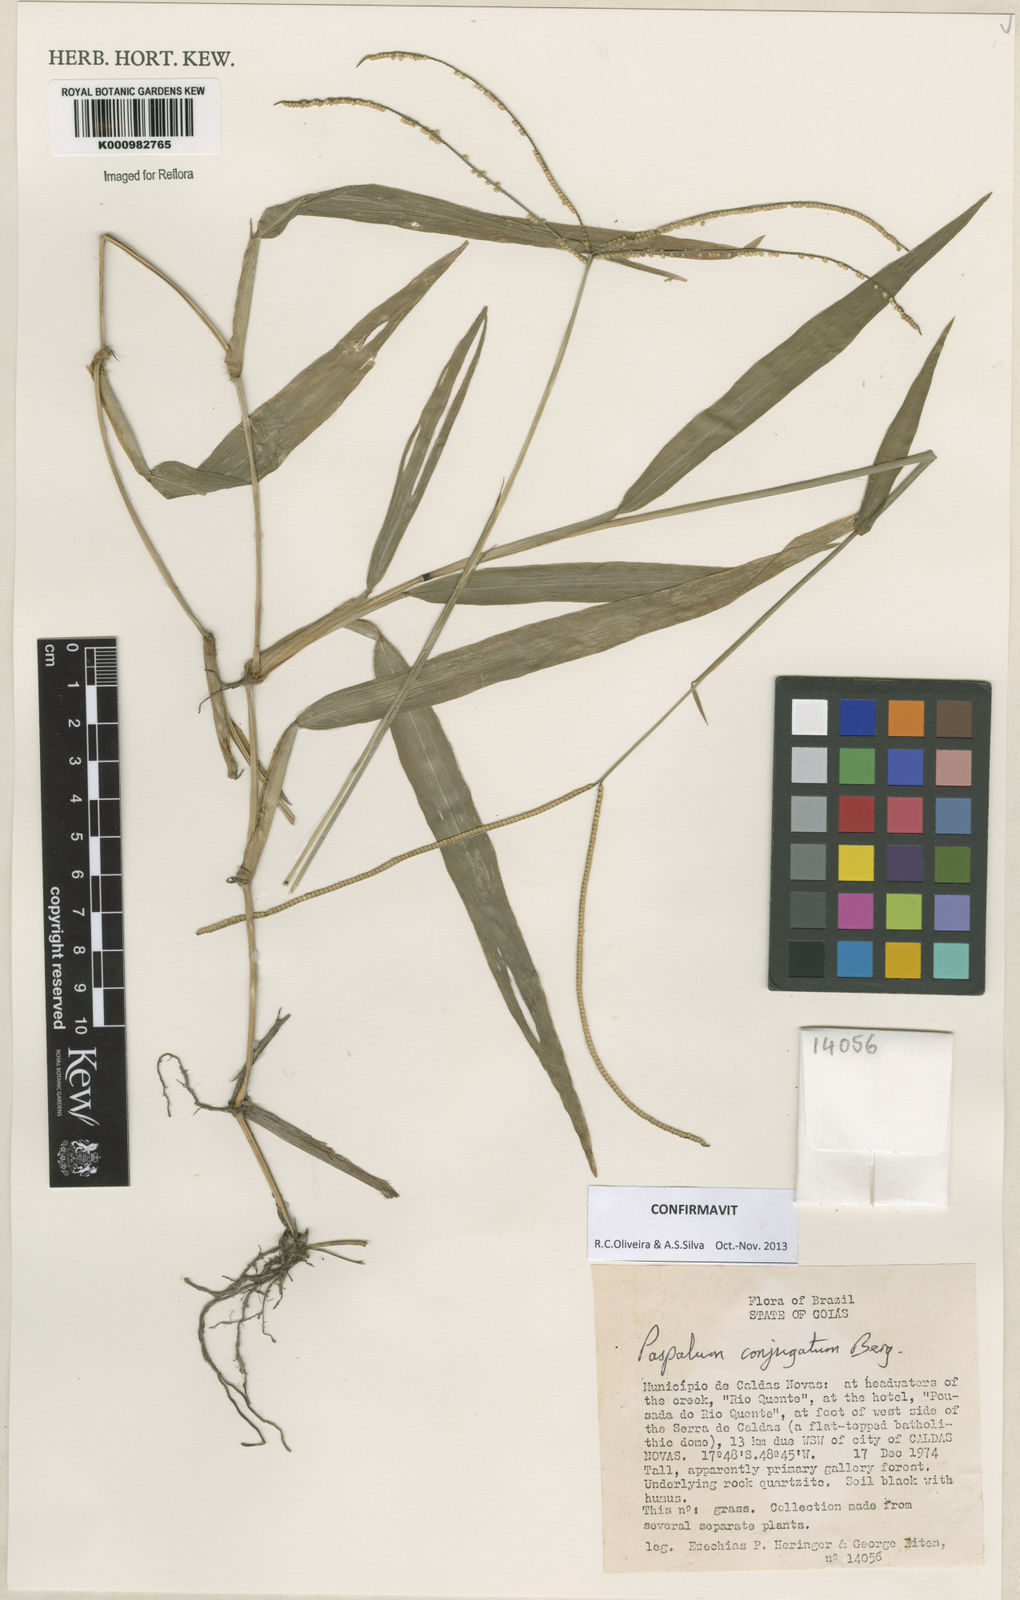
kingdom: Plantae
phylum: Tracheophyta
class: Liliopsida
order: Poales
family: Poaceae
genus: Paspalum
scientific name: Paspalum conjugatum
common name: Hilograss
